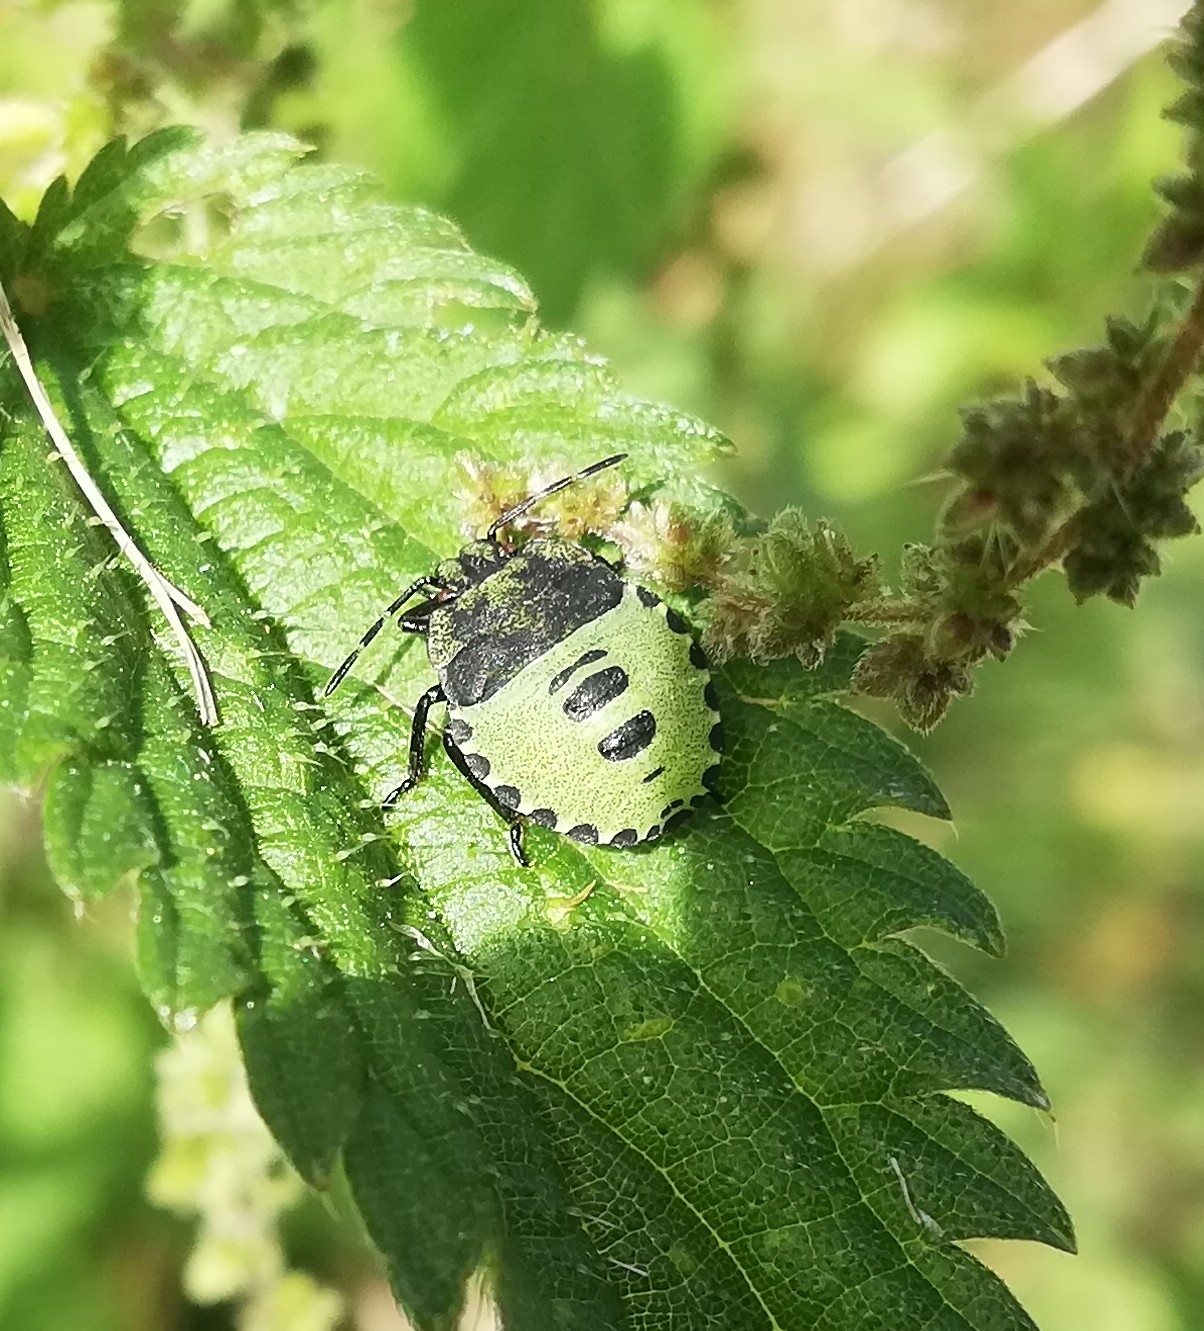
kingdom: Animalia
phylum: Arthropoda
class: Insecta
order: Hemiptera
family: Pentatomidae
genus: Palomena
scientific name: Palomena prasina
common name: Grøn bredtæge
